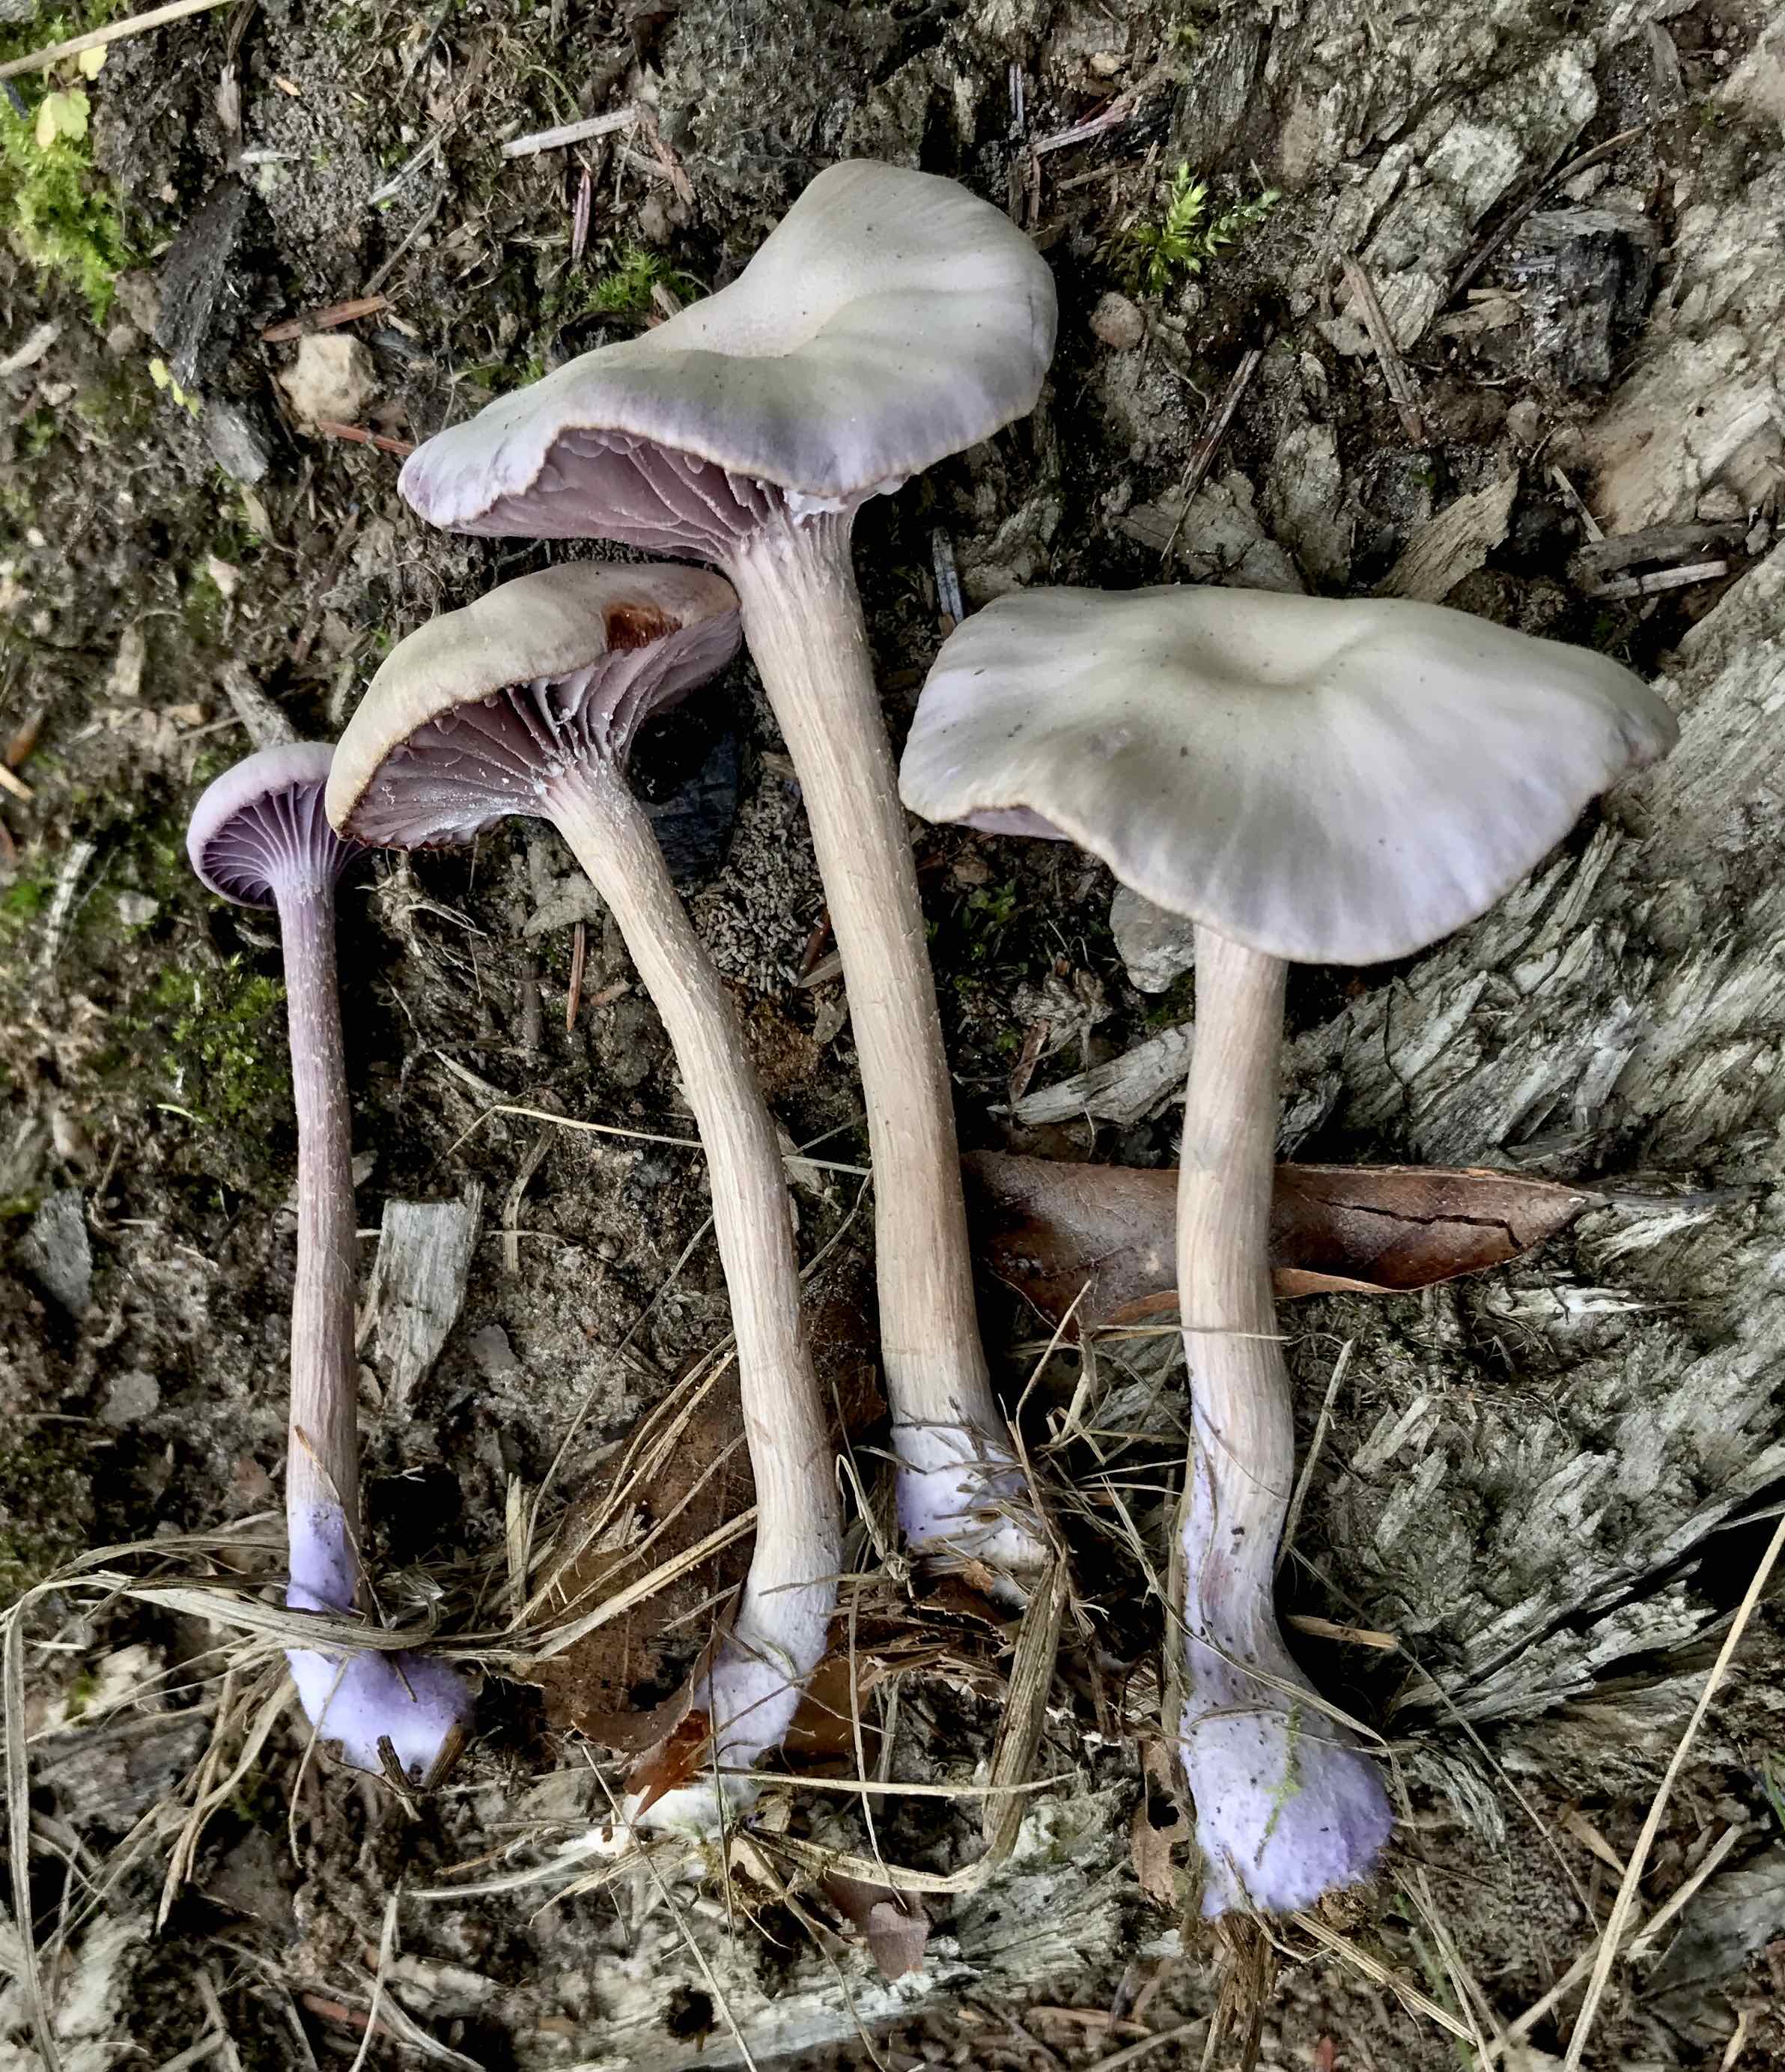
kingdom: Fungi
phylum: Basidiomycota
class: Agaricomycetes
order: Agaricales
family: Hydnangiaceae
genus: Laccaria
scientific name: Laccaria amethystina
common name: violet ametysthat
